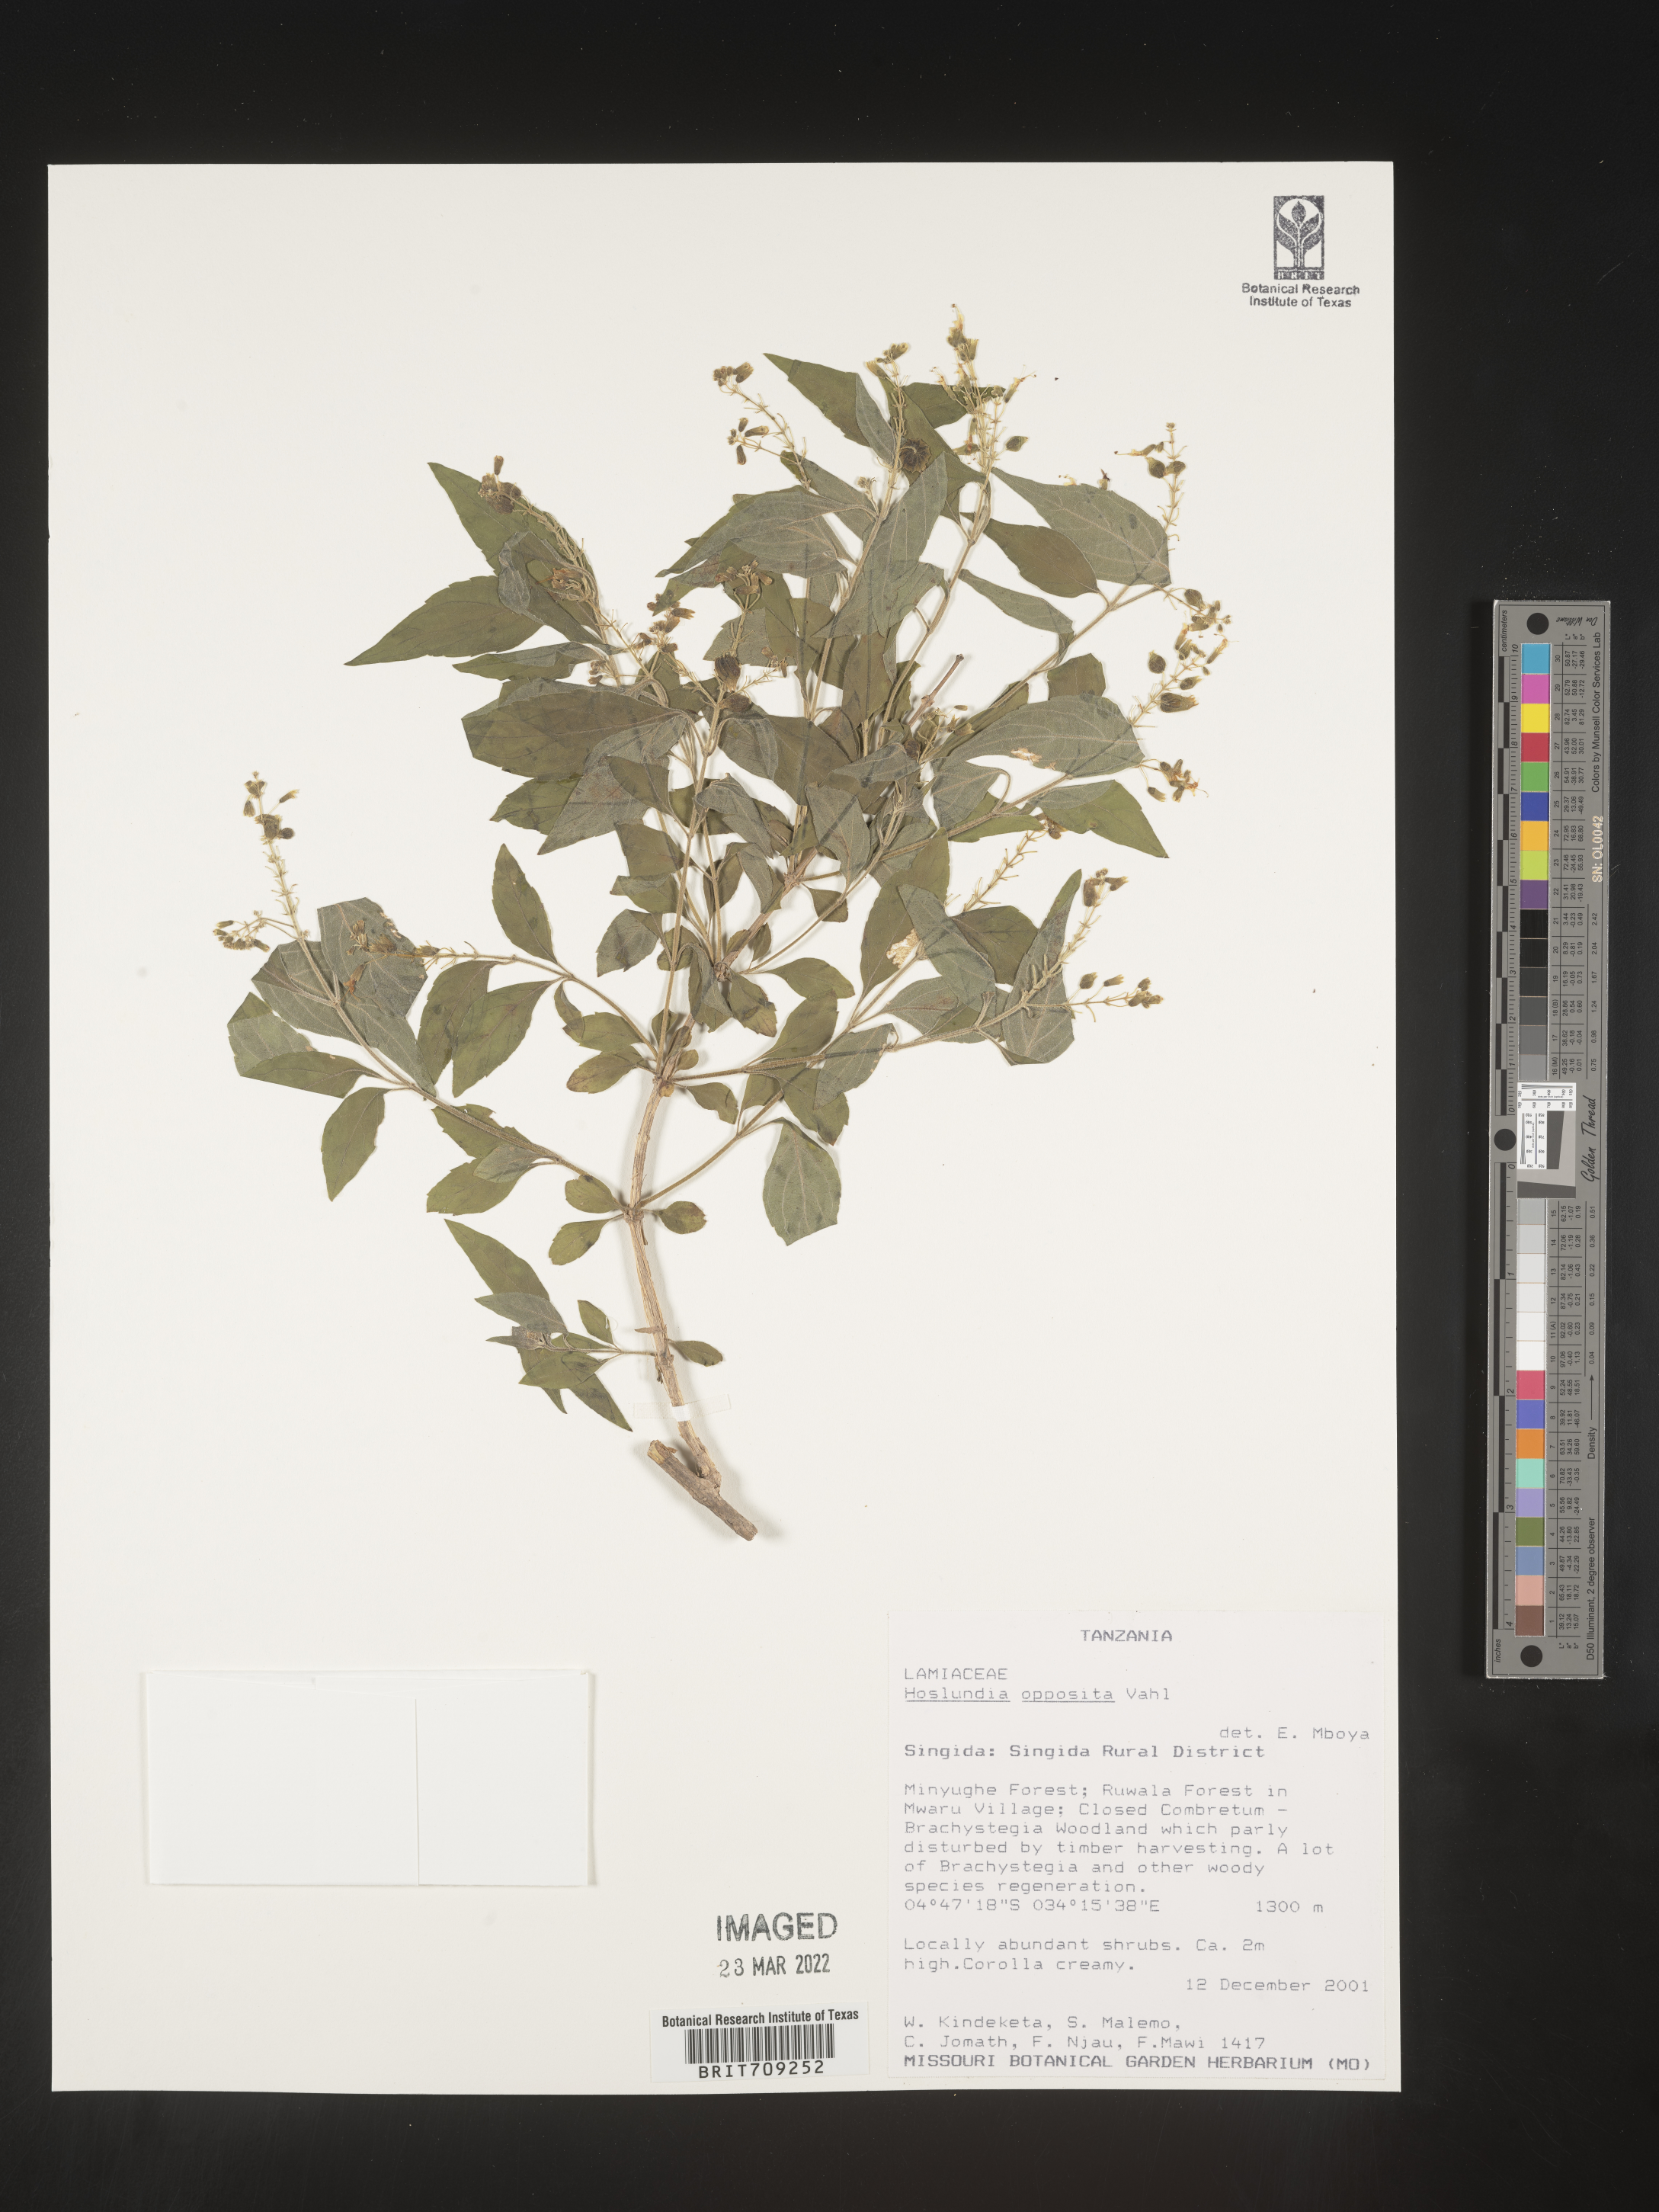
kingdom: Plantae
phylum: Tracheophyta
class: Magnoliopsida
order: Lamiales
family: Lamiaceae
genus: Hoslundia
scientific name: Hoslundia opposita
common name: Kamyuye
